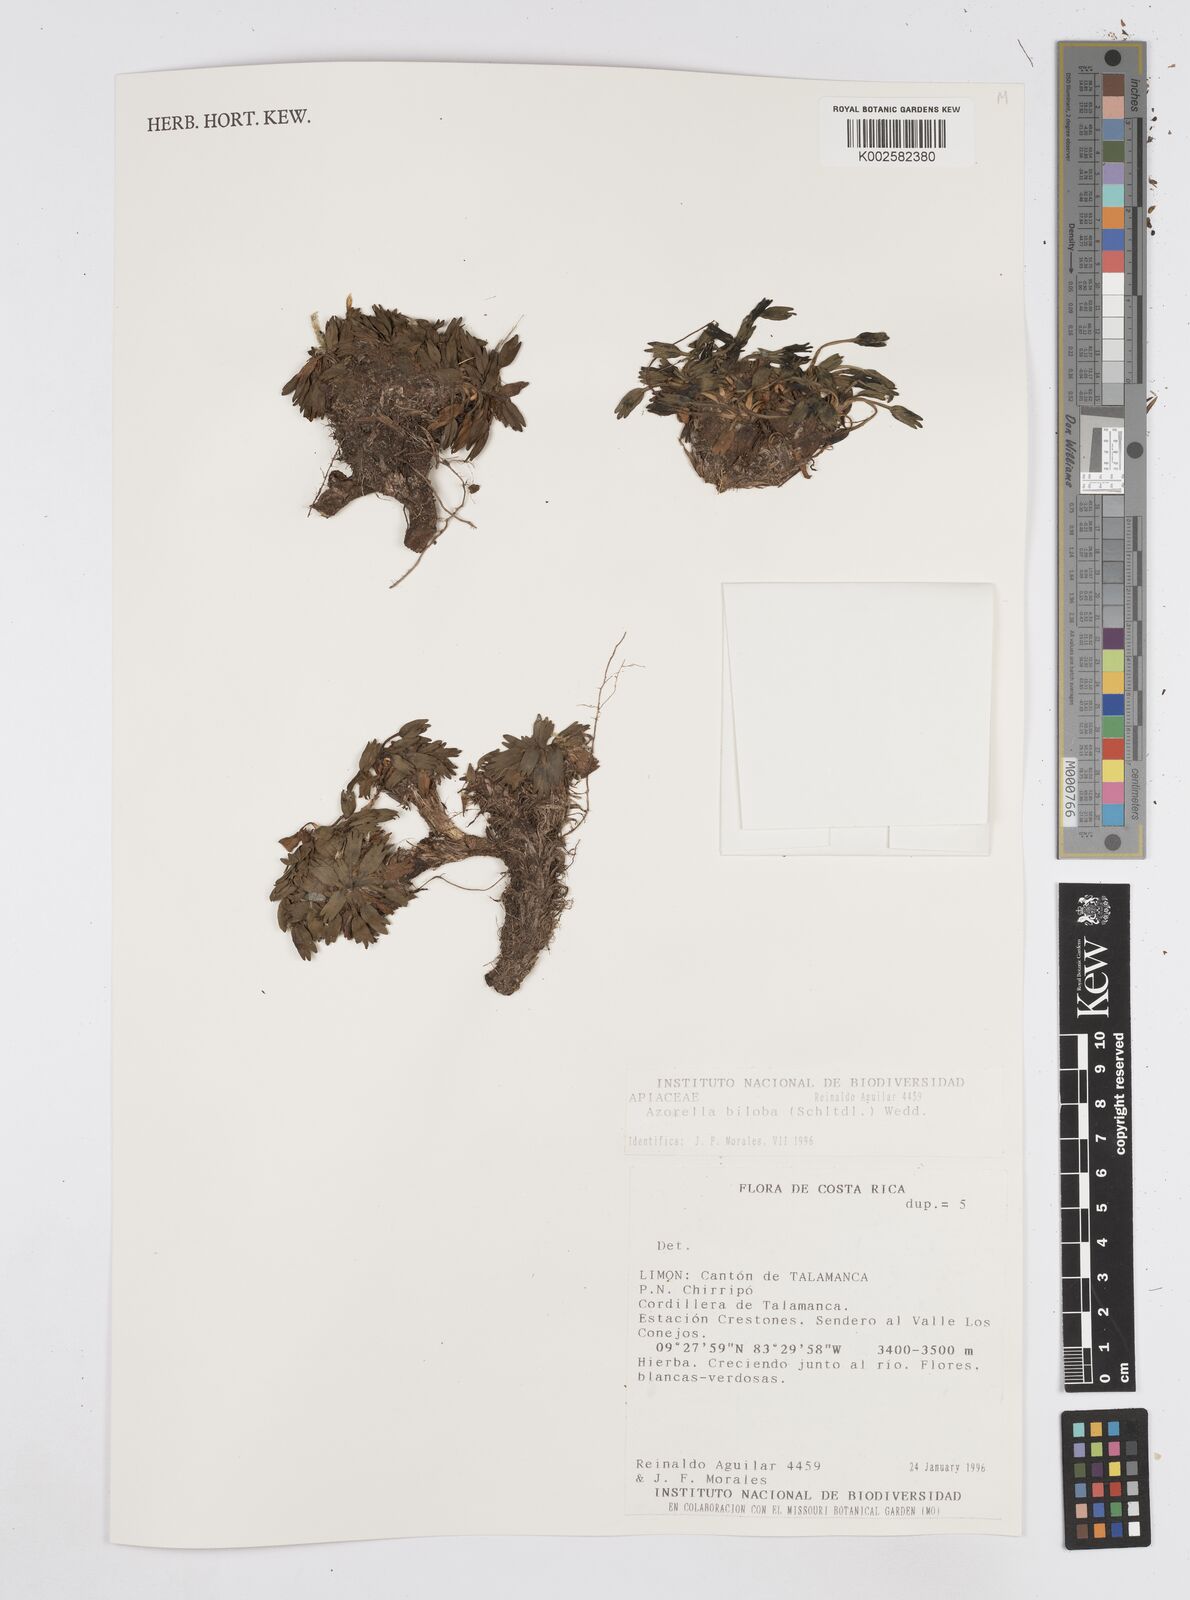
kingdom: Plantae
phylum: Tracheophyta
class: Magnoliopsida
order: Apiales
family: Apiaceae
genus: Azorella
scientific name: Azorella biloba
